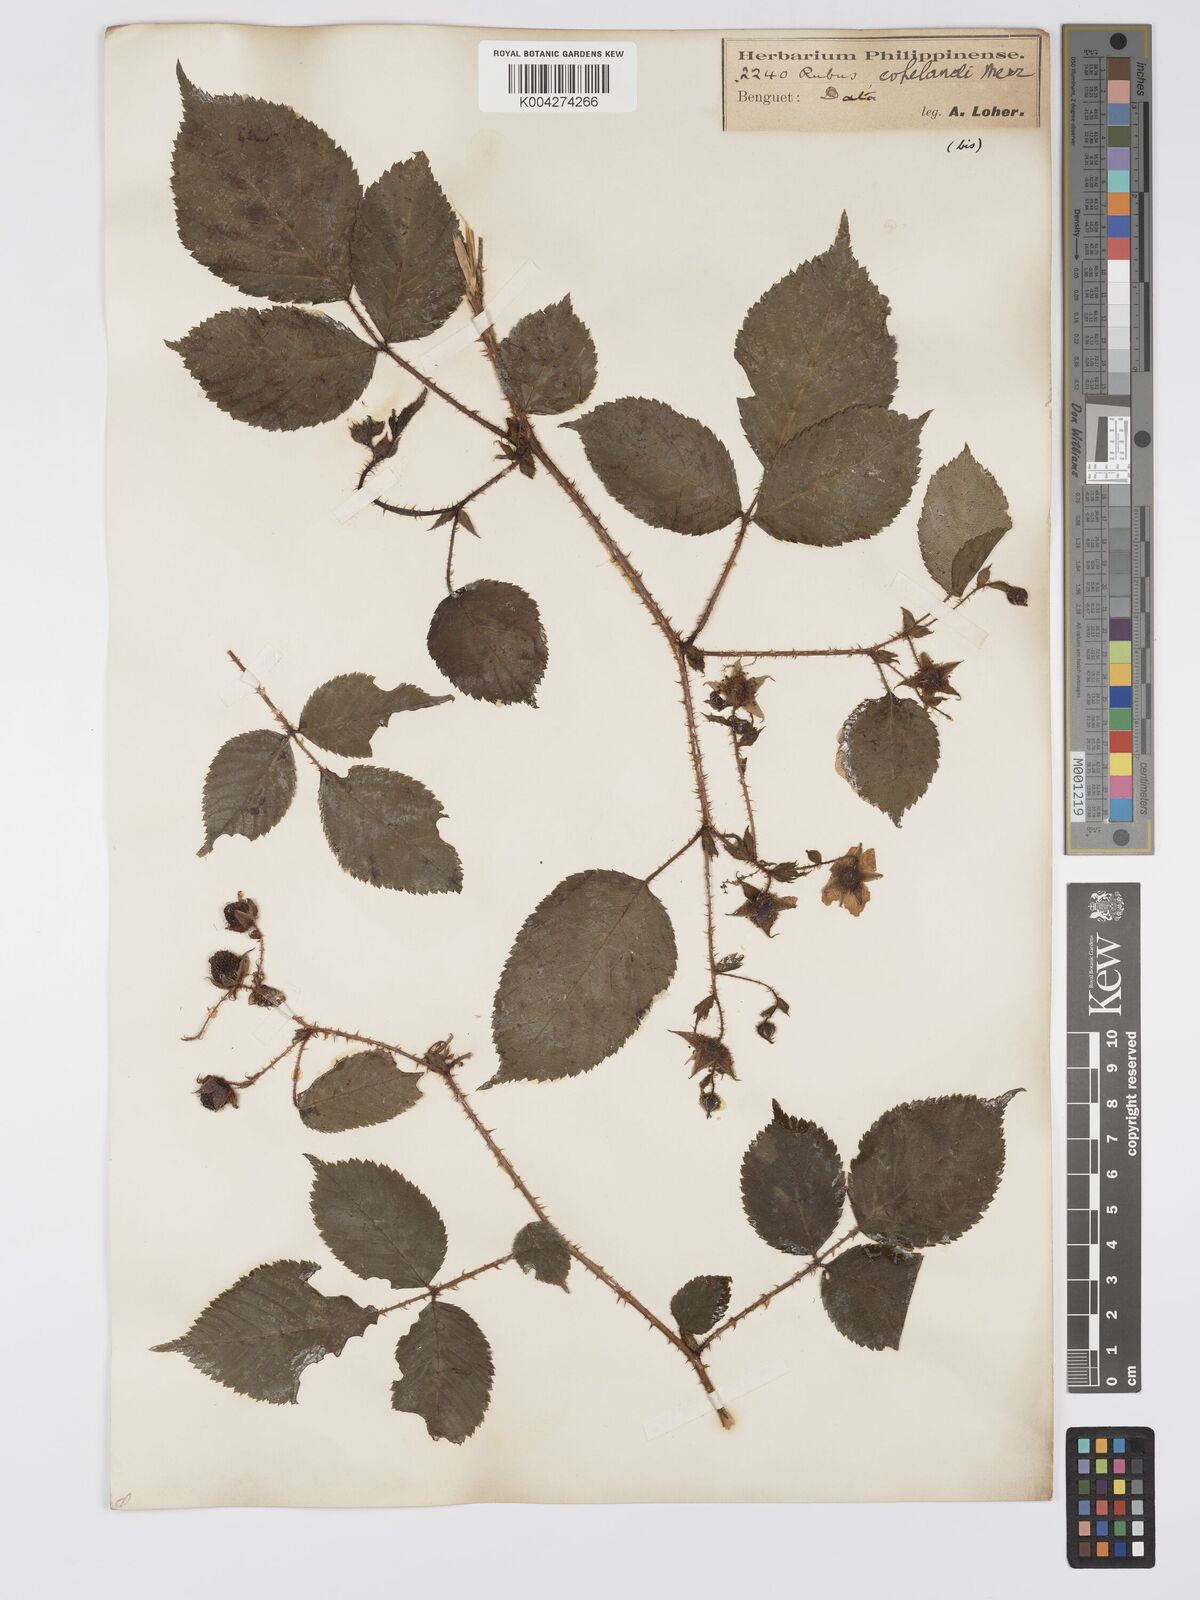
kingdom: Plantae
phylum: Tracheophyta
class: Magnoliopsida
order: Rosales
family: Rosaceae
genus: Rubus
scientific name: Rubus
